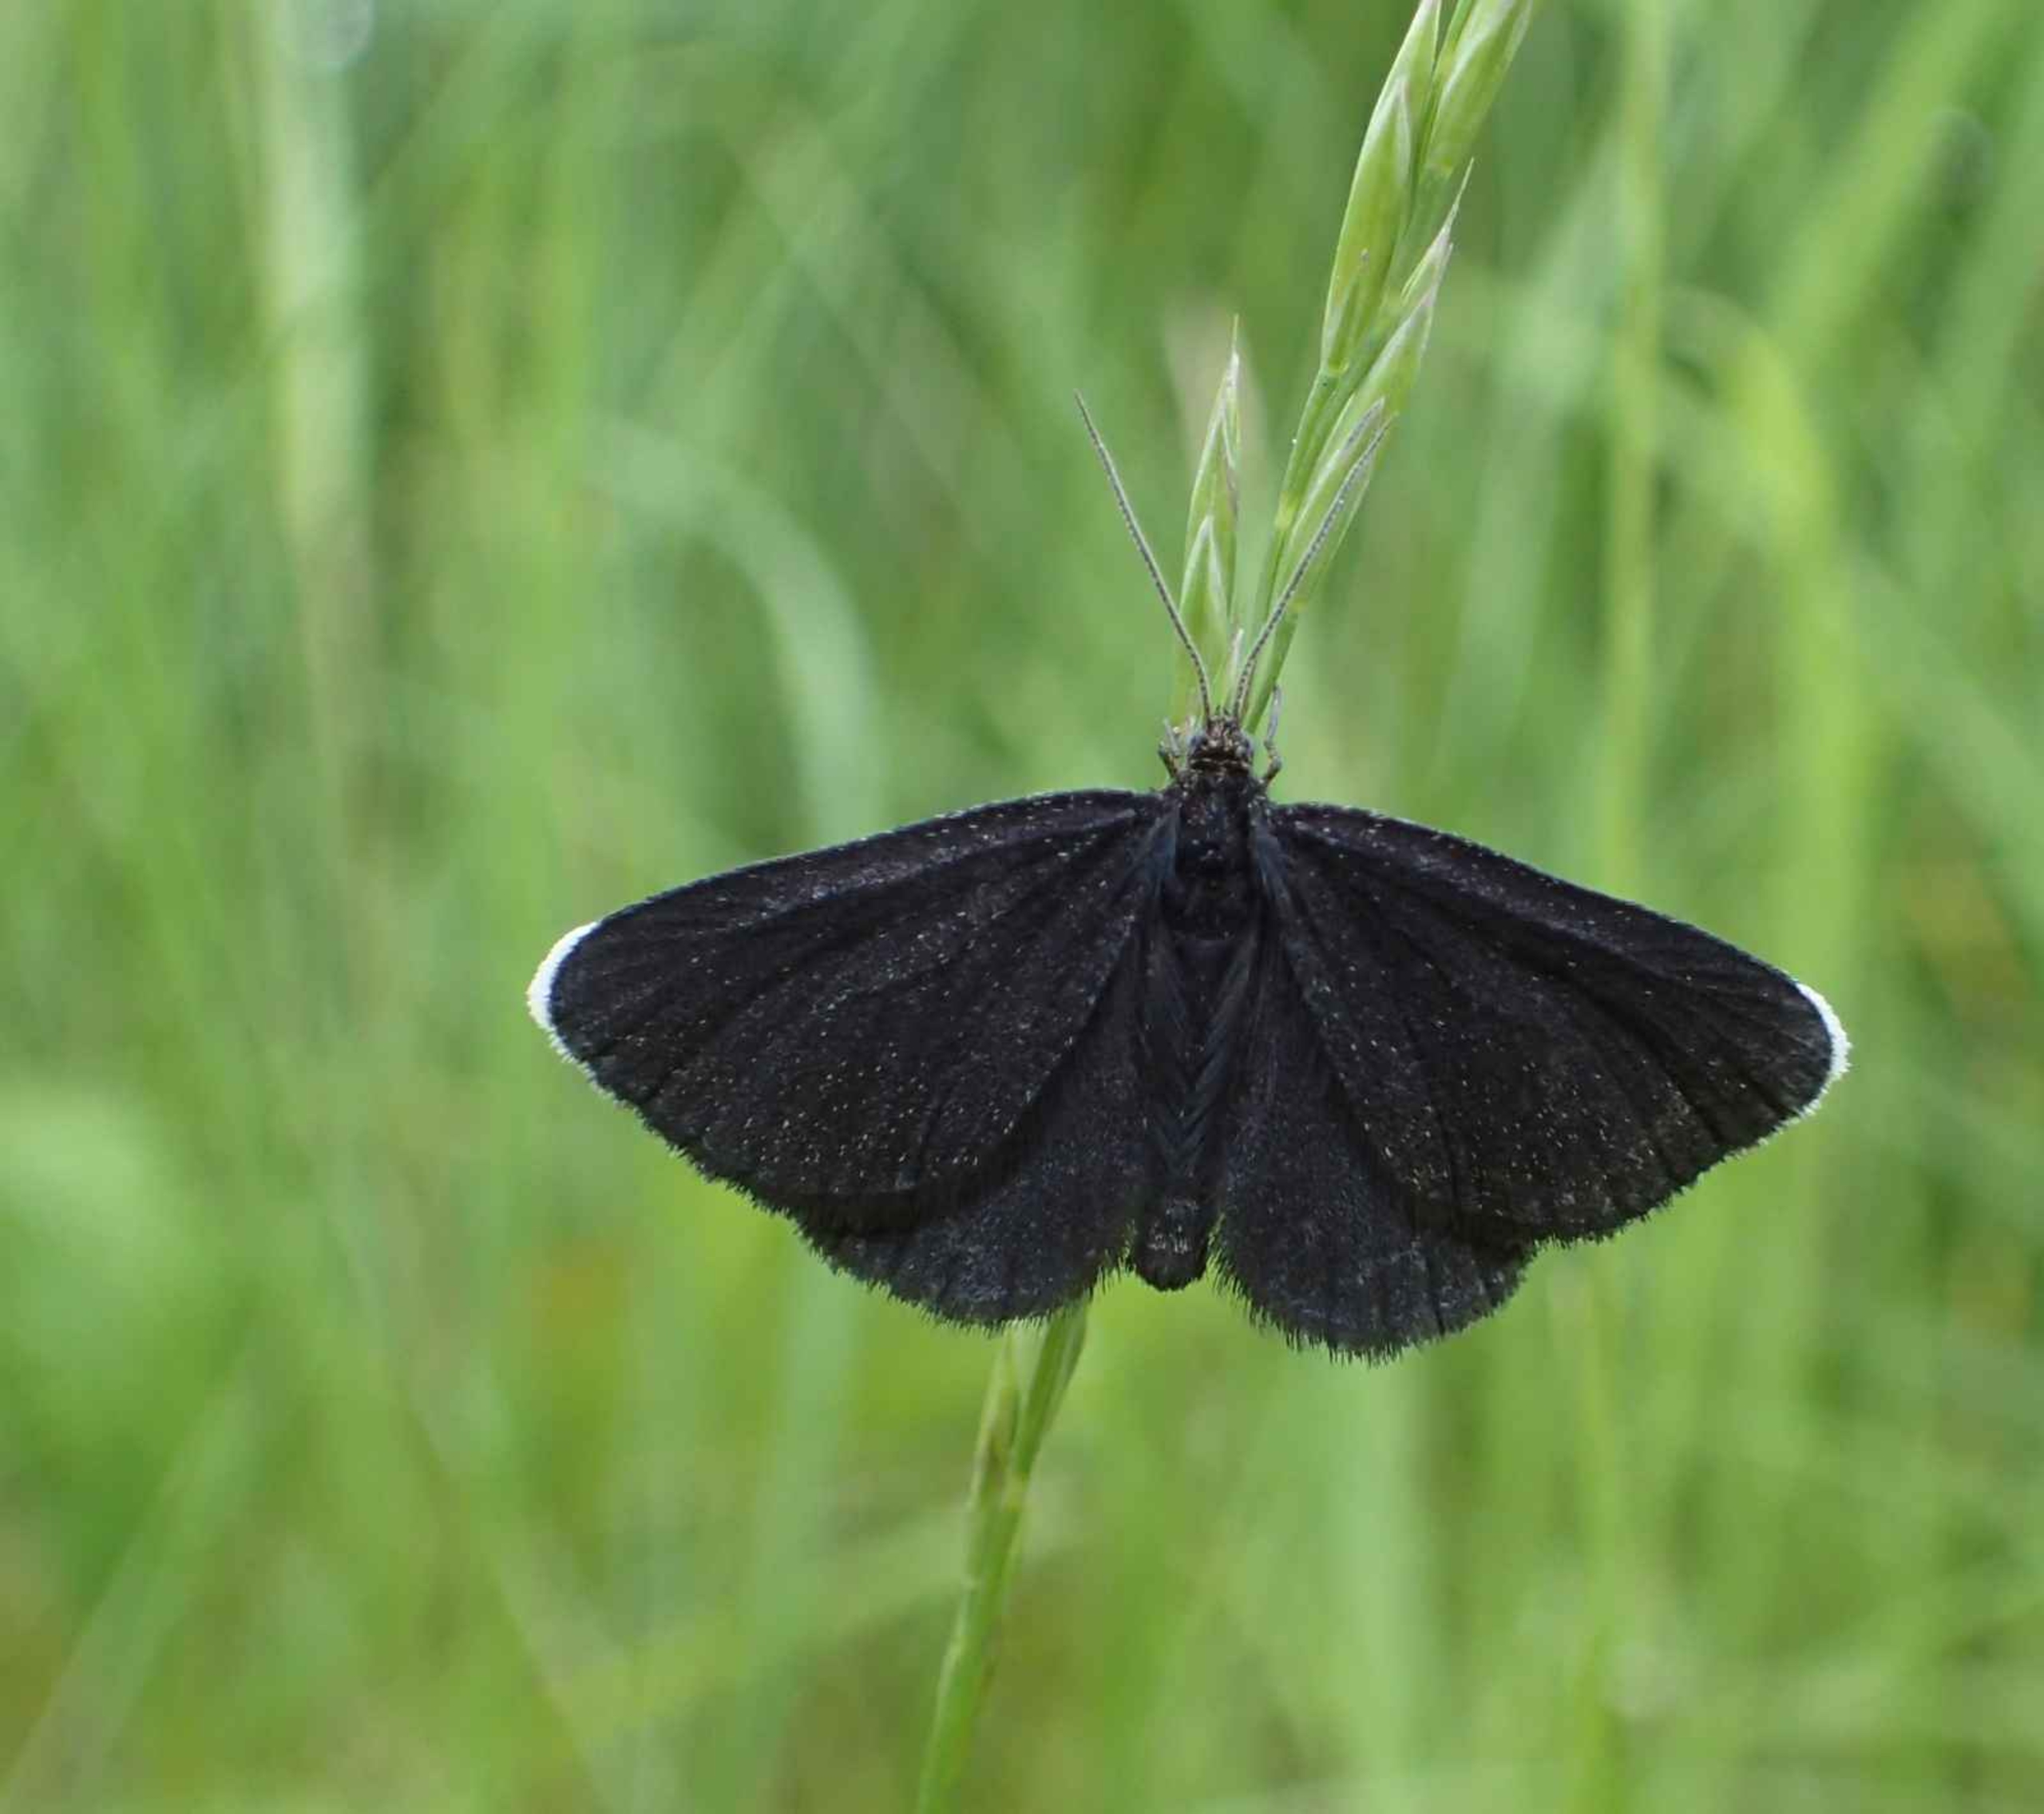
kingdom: Animalia
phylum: Arthropoda
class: Insecta
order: Lepidoptera
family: Geometridae
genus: Odezia
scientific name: Odezia atrata
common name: Sort måler
